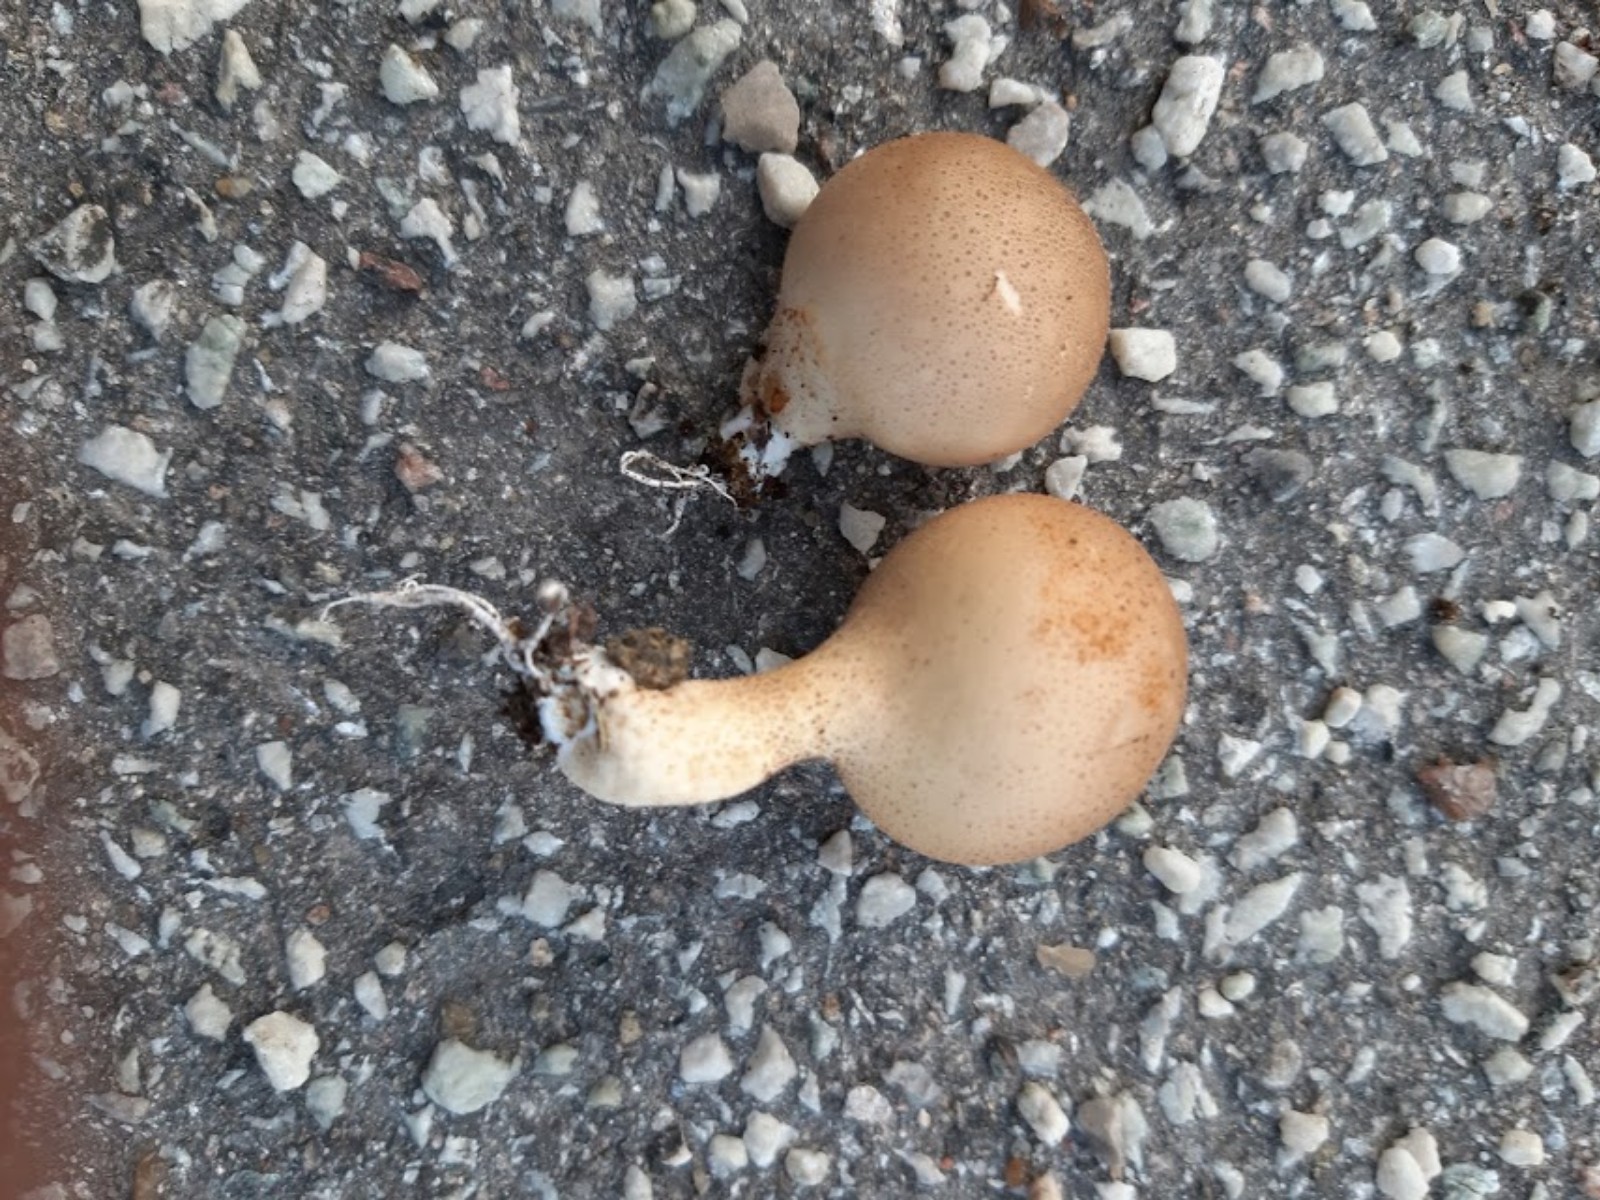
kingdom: Fungi
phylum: Basidiomycota
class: Agaricomycetes
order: Agaricales
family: Lycoperdaceae
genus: Apioperdon
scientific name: Apioperdon pyriforme
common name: pære-støvbold
